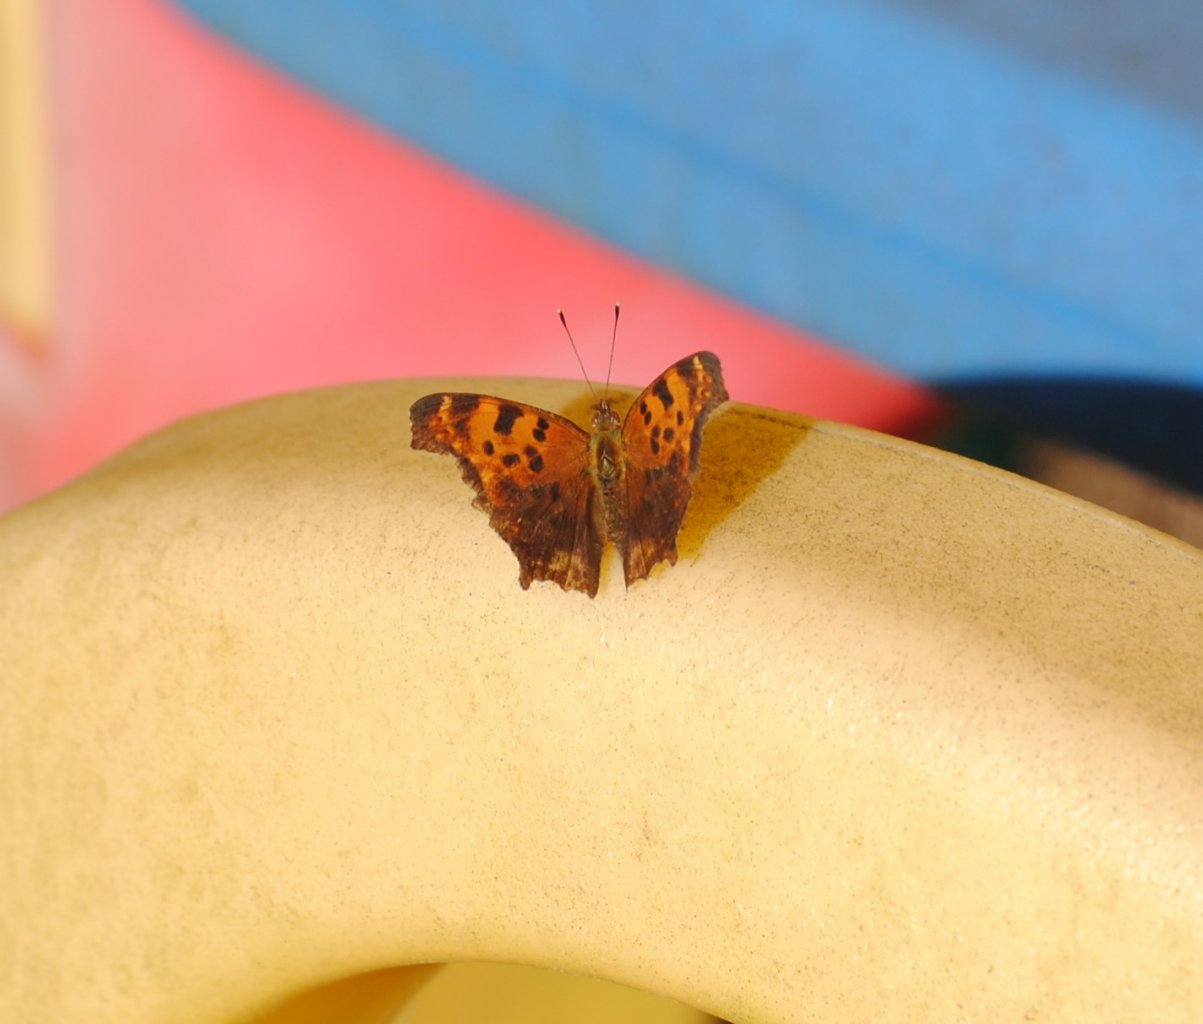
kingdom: Animalia
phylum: Arthropoda
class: Insecta
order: Lepidoptera
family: Nymphalidae
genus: Polygonia
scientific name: Polygonia comma
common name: Eastern Comma
